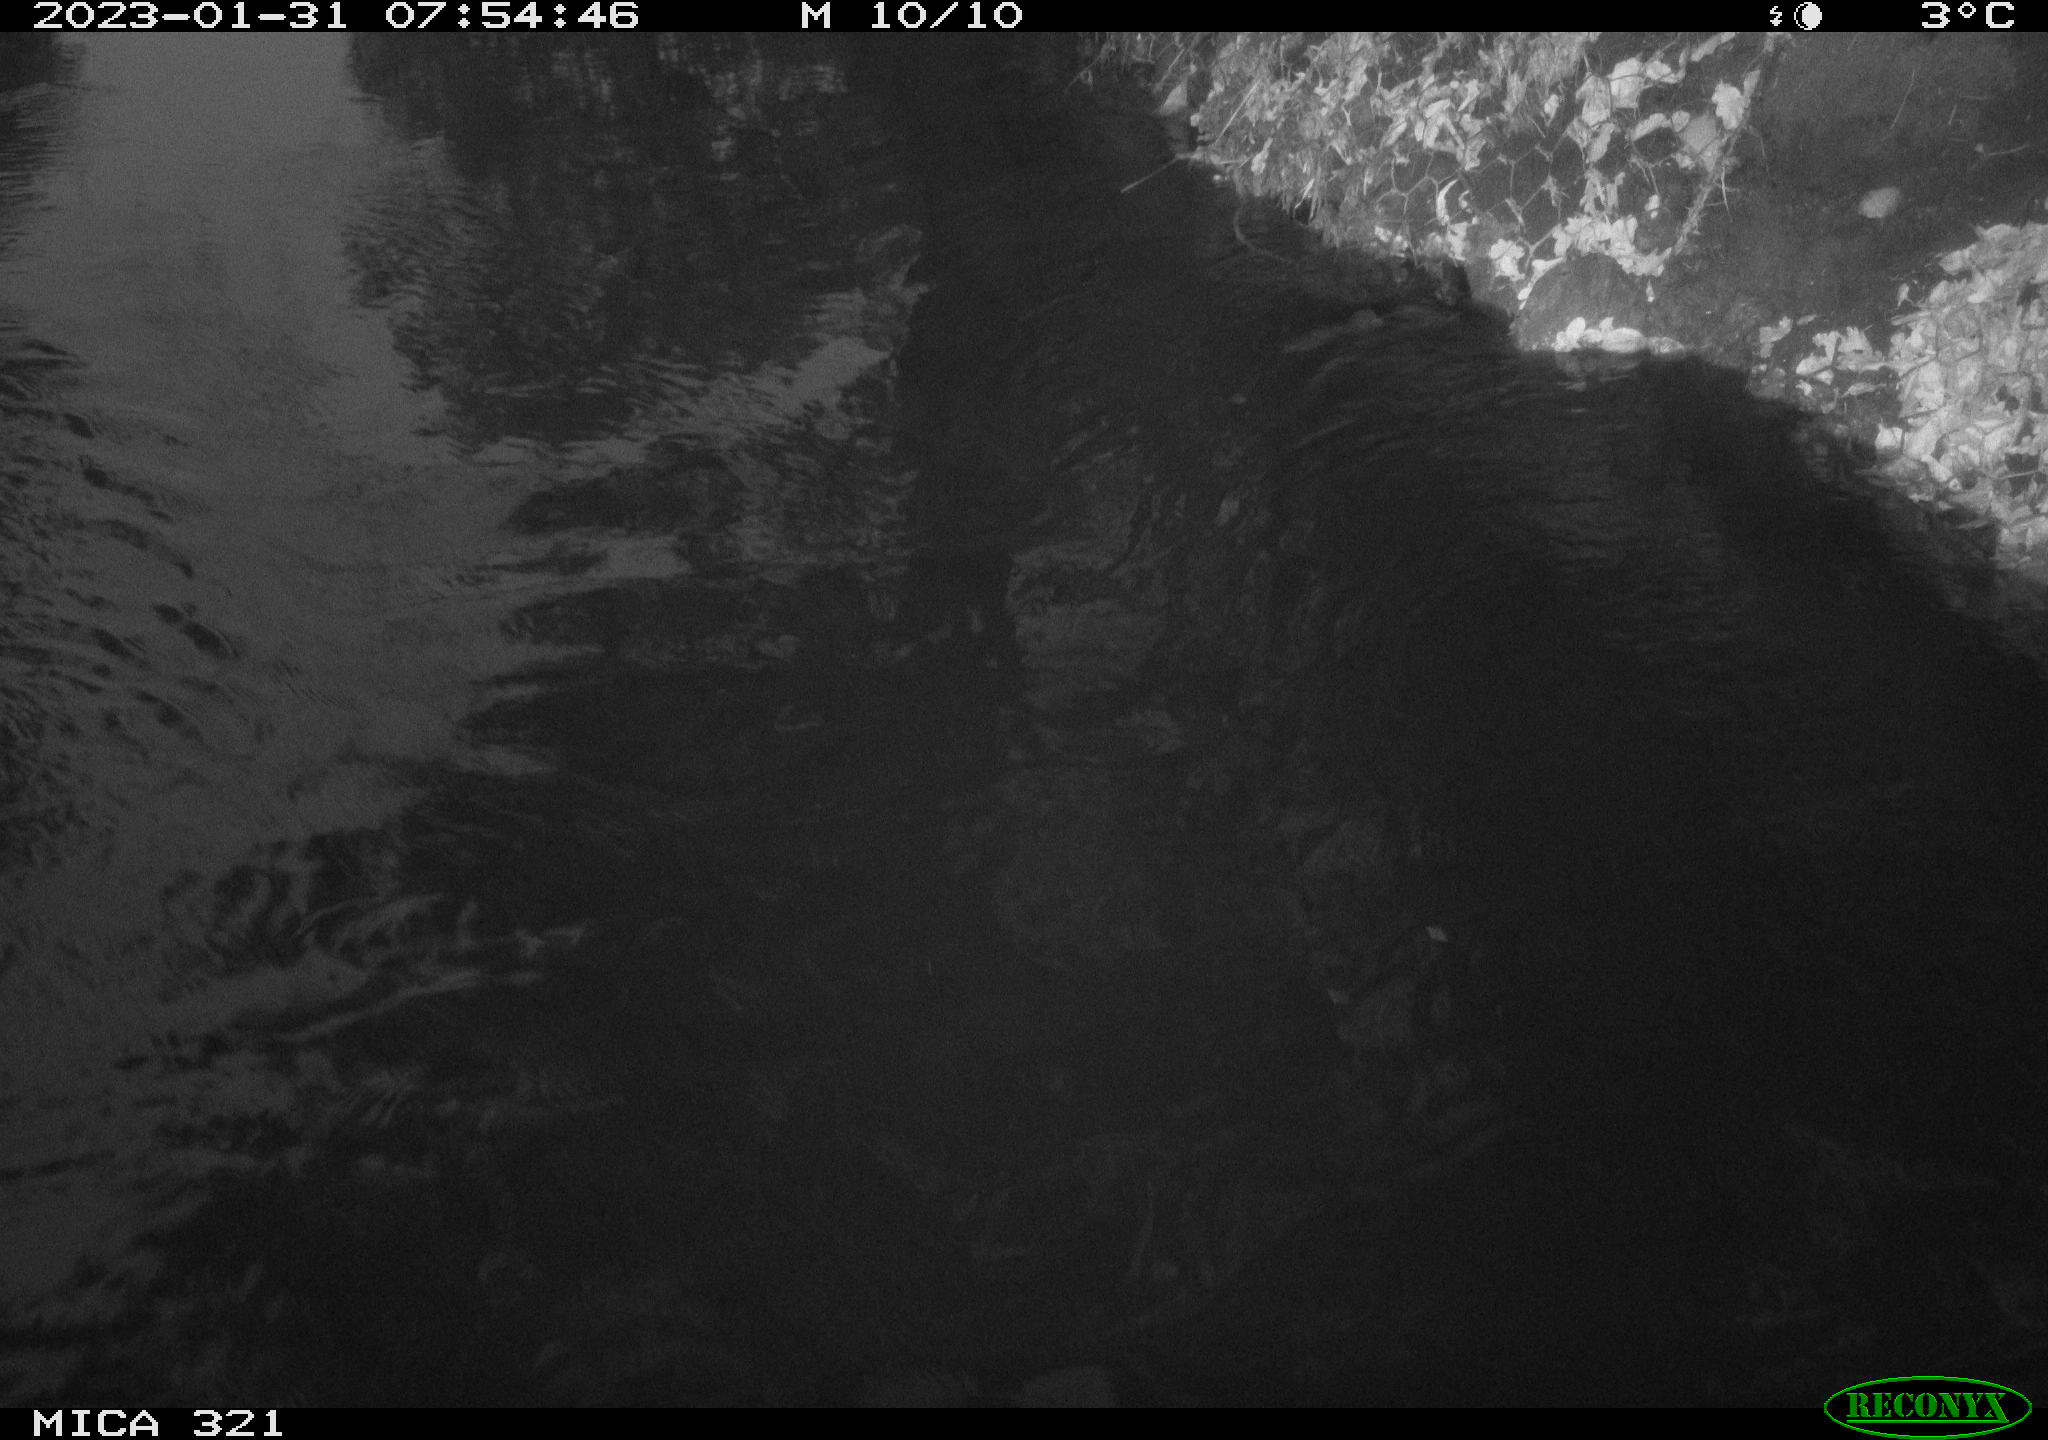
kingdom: Animalia
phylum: Chordata
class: Aves
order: Gruiformes
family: Rallidae
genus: Fulica
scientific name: Fulica atra
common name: Eurasian coot
